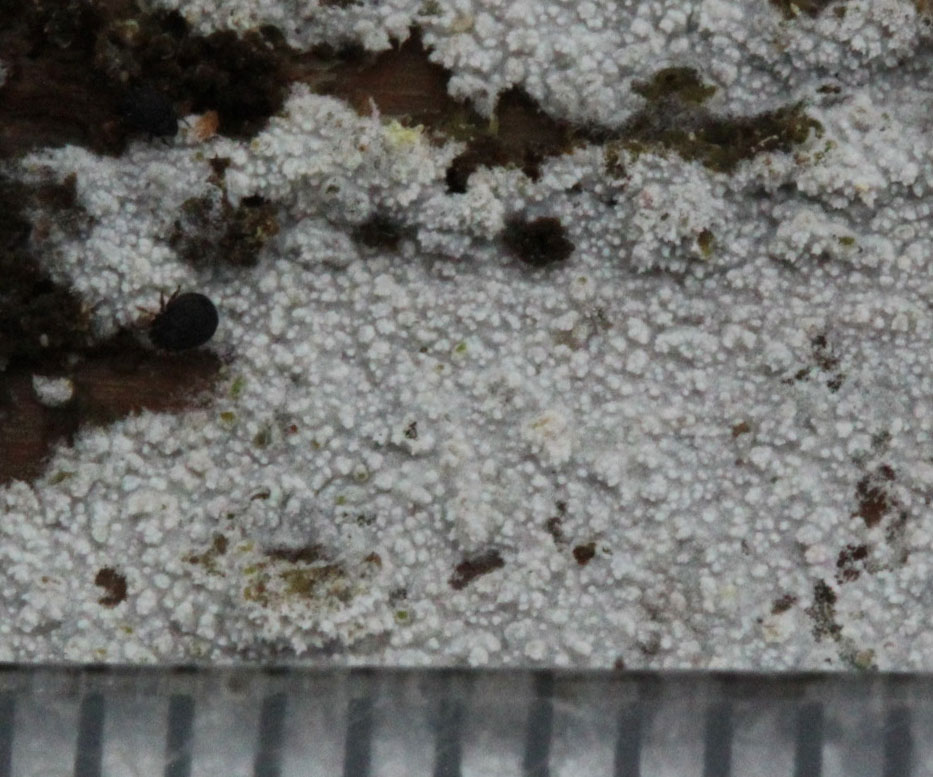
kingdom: Fungi
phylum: Basidiomycota
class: Agaricomycetes
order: Hymenochaetales
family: Schizoporaceae
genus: Xylodon
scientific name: Xylodon asper
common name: fjern tandsvamp
